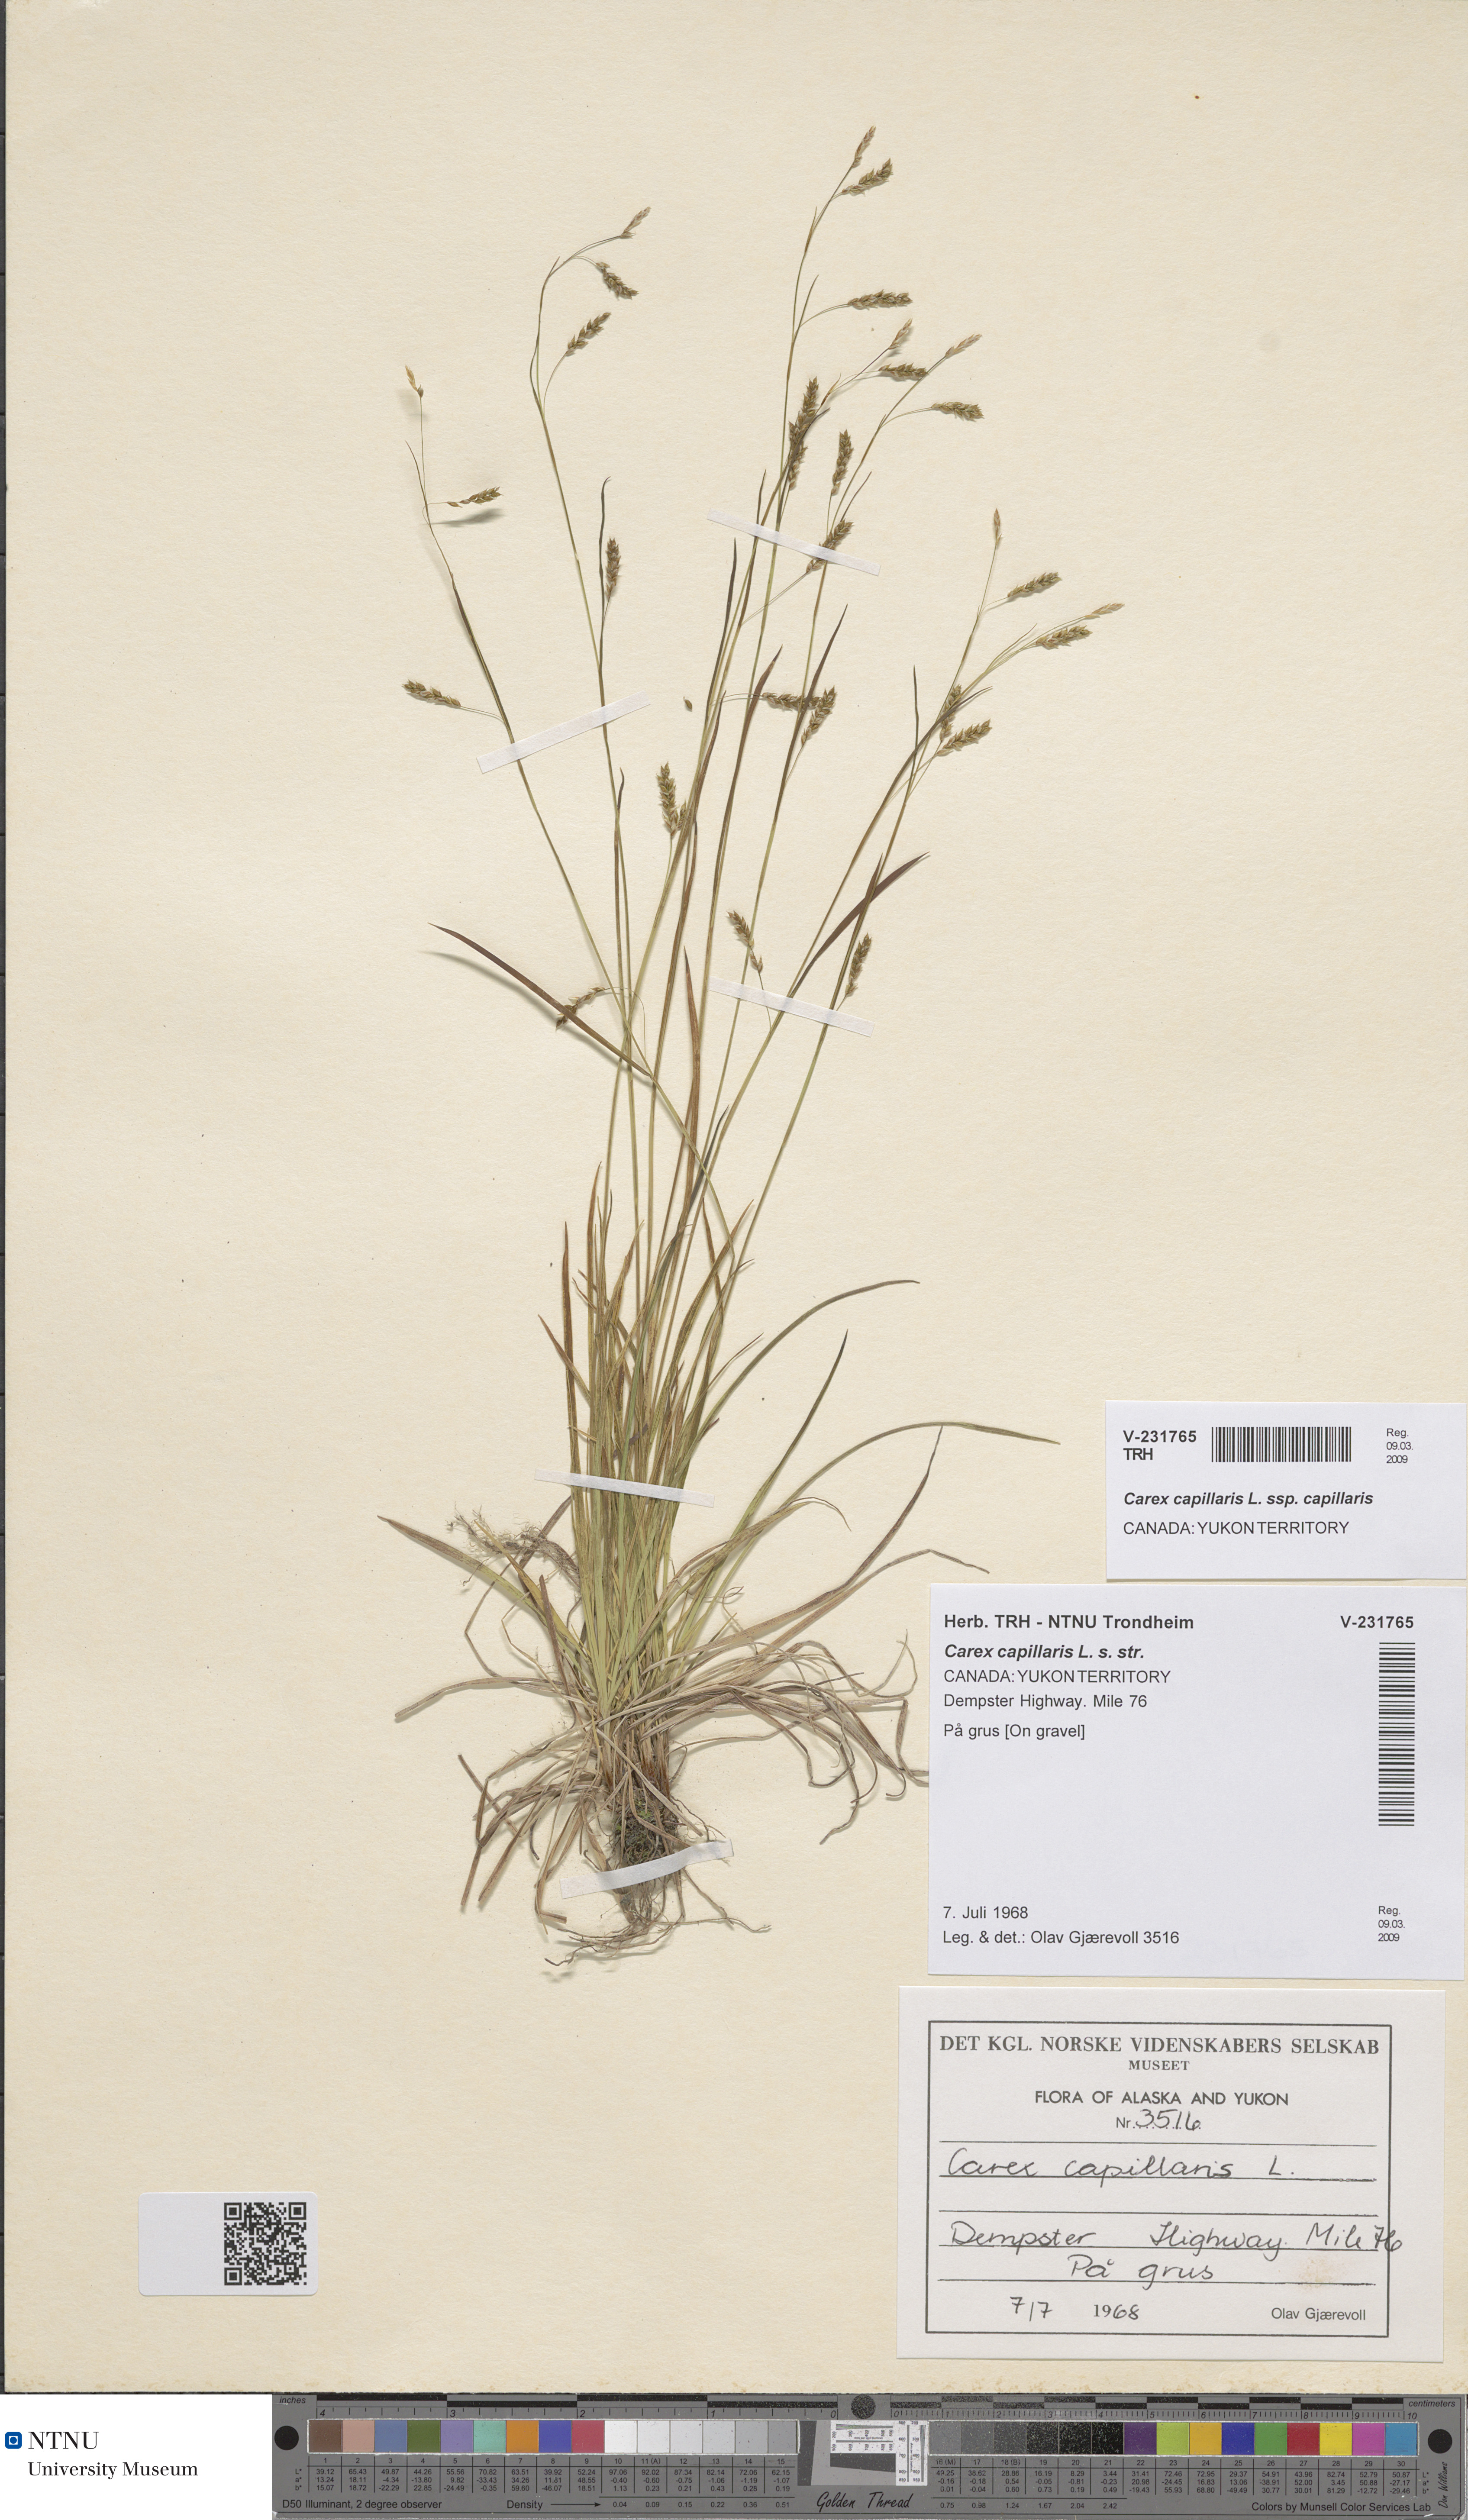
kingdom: Plantae
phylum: Tracheophyta
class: Liliopsida
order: Poales
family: Cyperaceae
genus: Carex
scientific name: Carex capillaris
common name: Hair sedge
